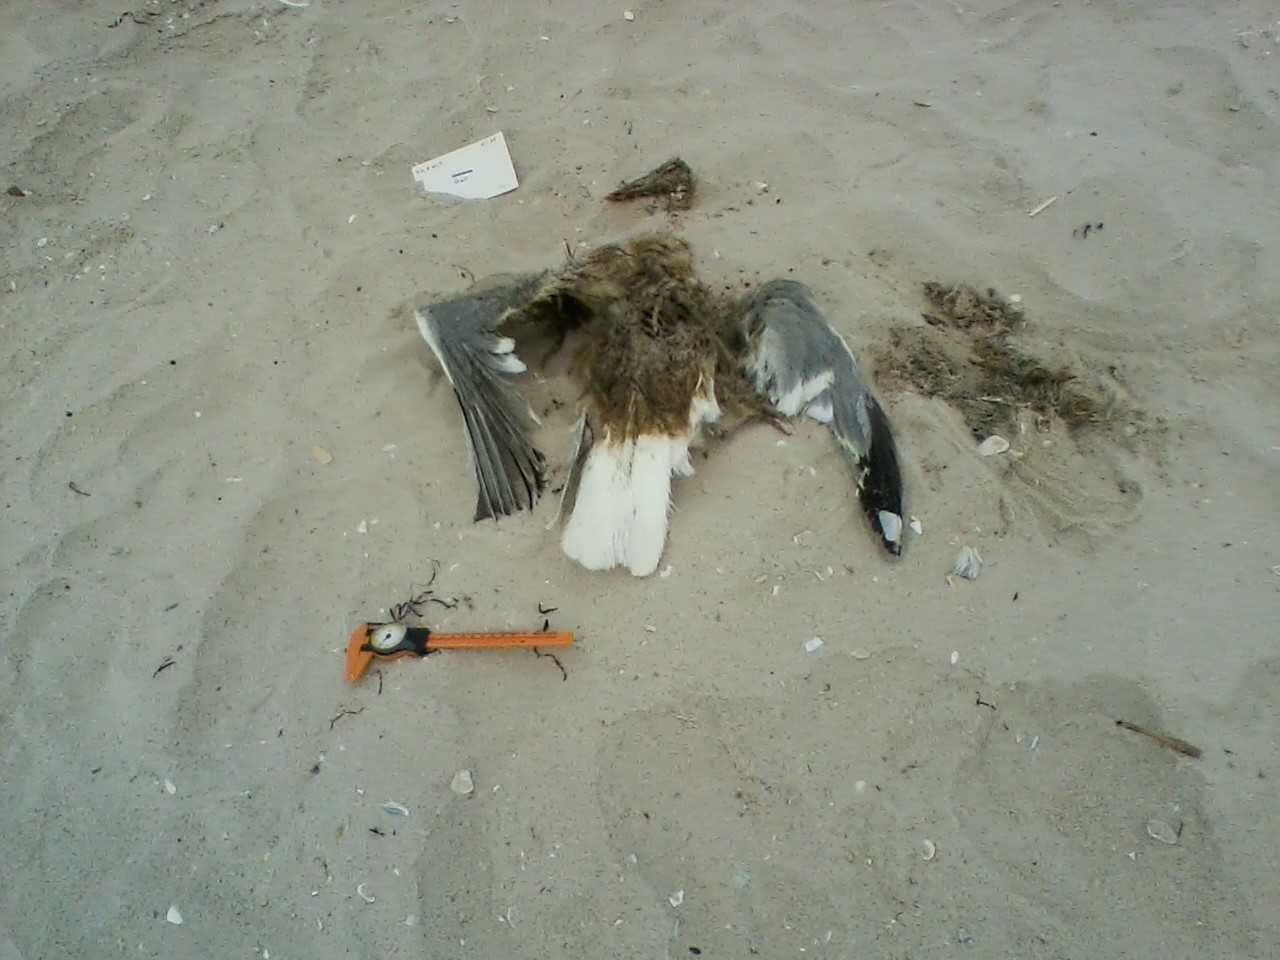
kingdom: Animalia
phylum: Chordata
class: Aves
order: Anseriformes
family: Anatidae
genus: Melanitta
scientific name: Melanitta nigra
